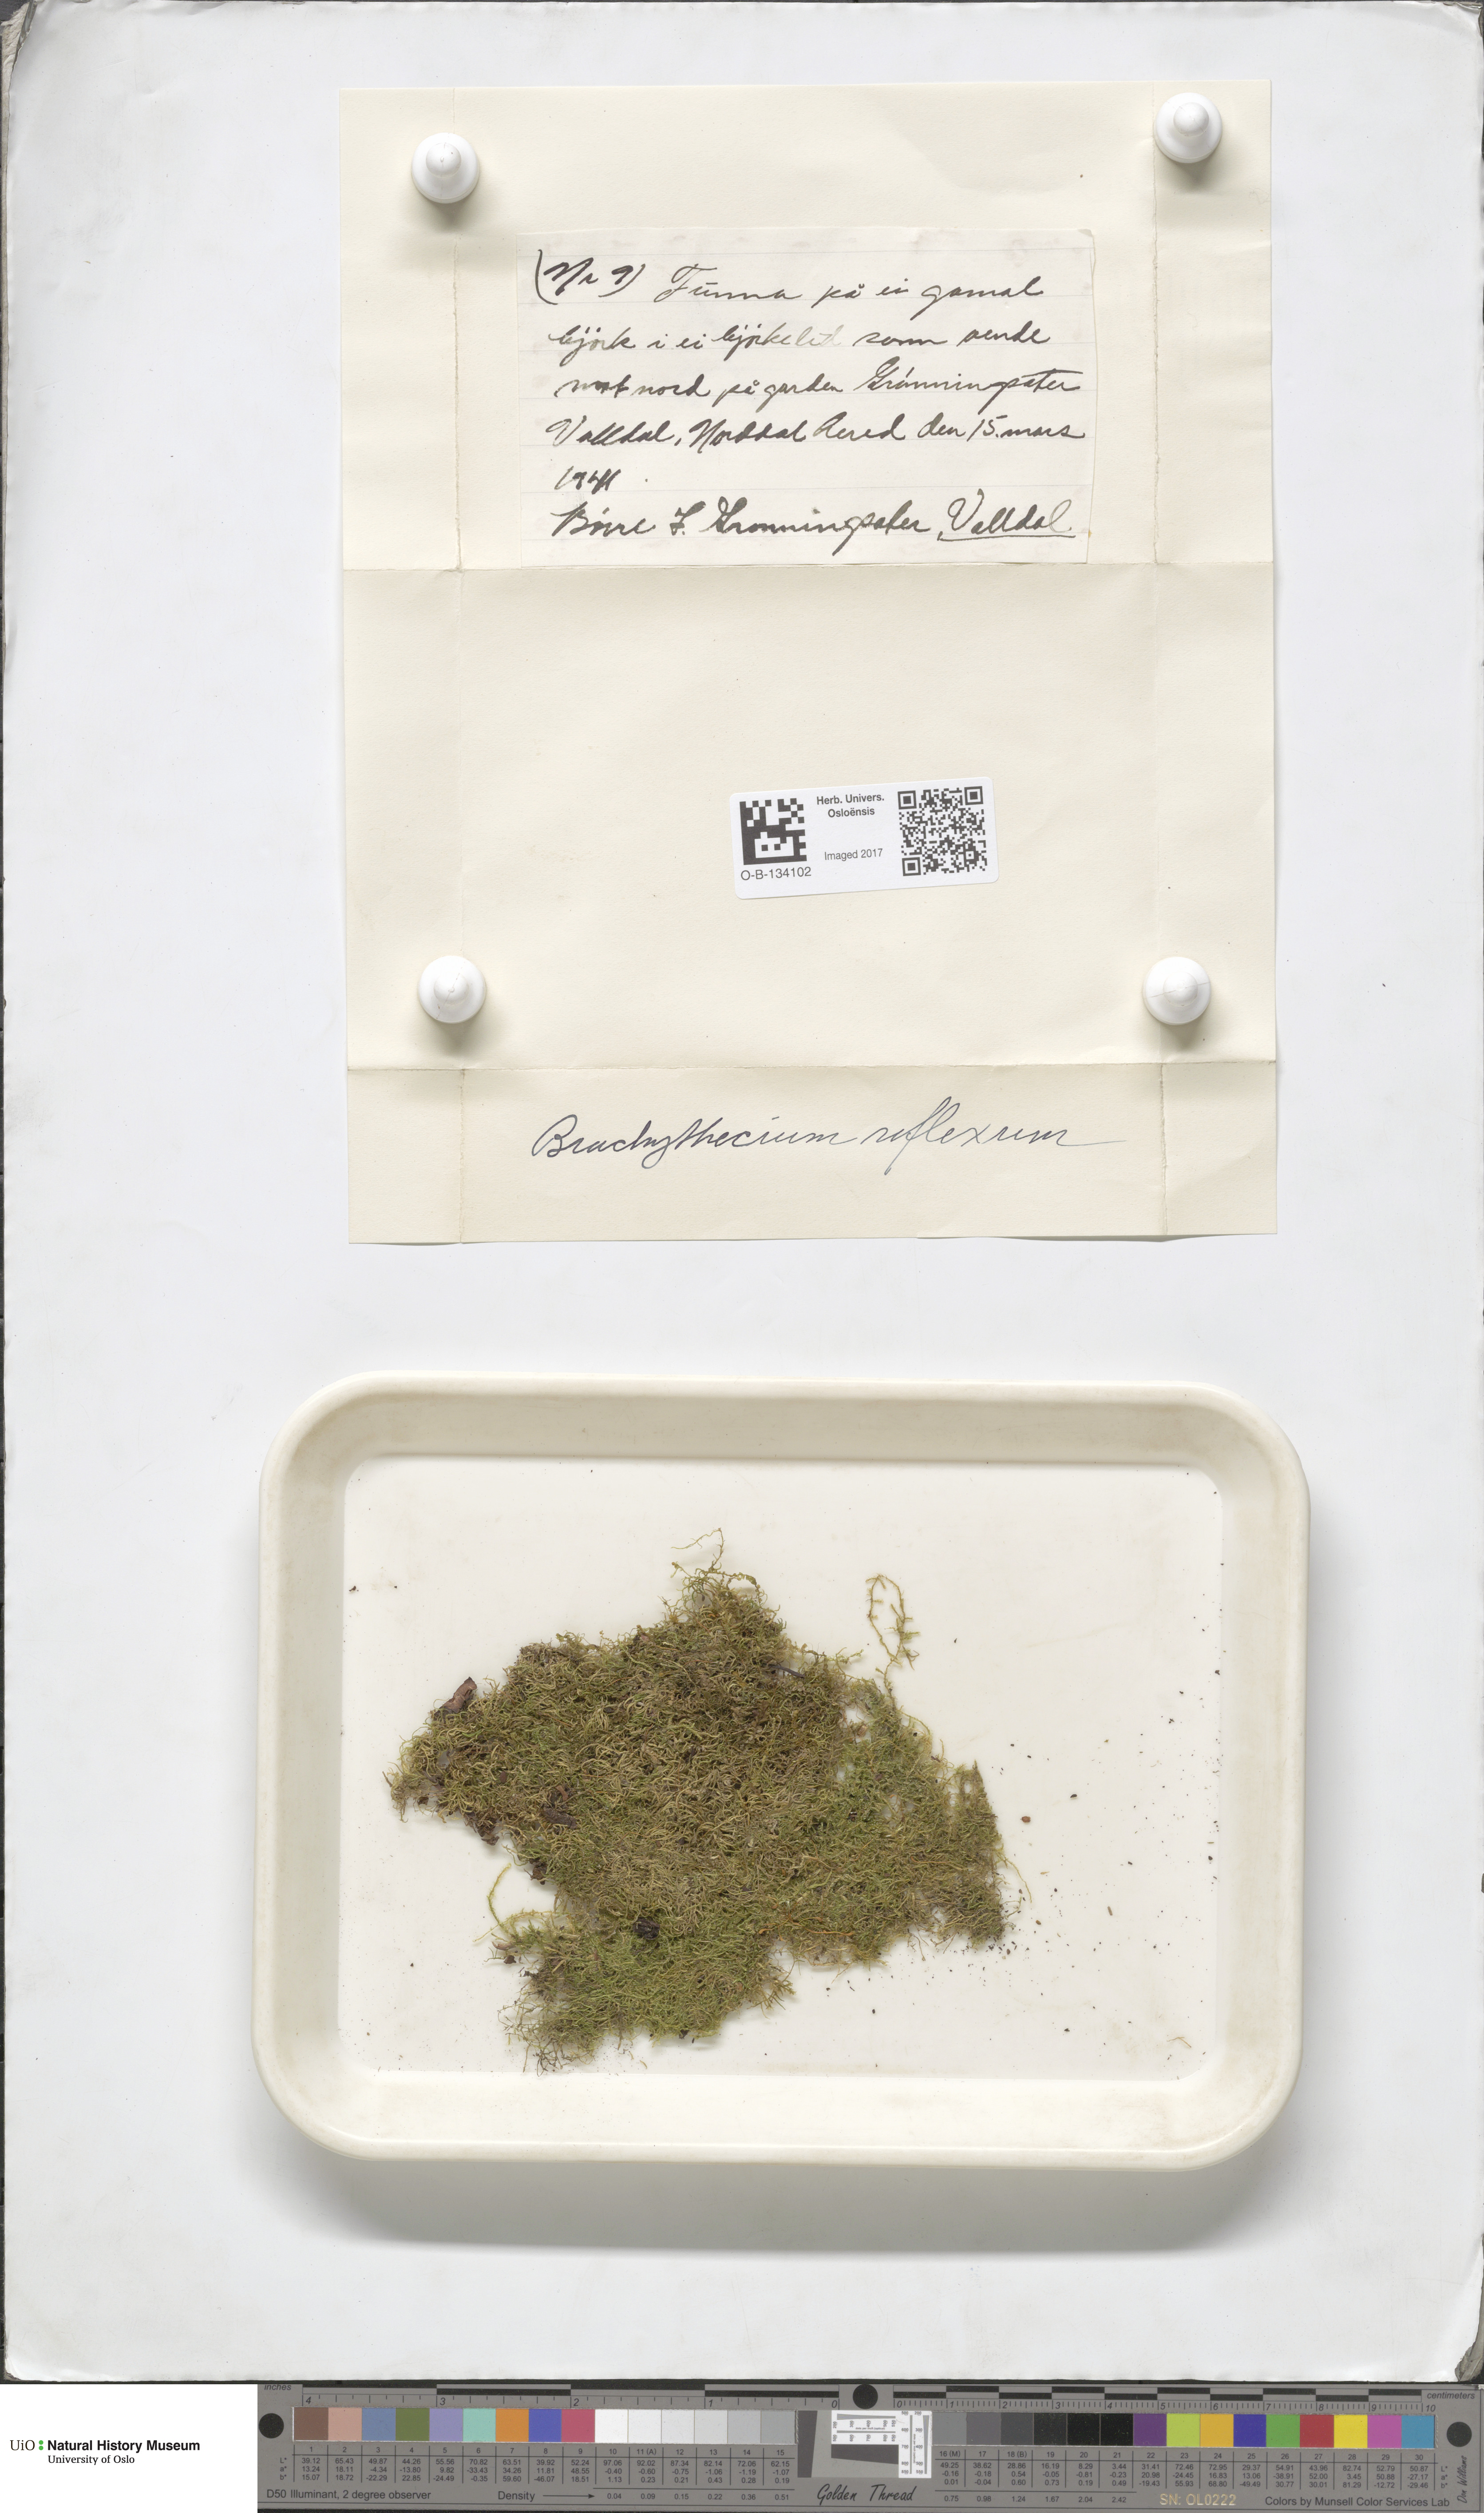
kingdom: Plantae
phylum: Bryophyta
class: Bryopsida
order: Hypnales
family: Brachytheciaceae
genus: Sciuro-hypnum
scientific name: Sciuro-hypnum reflexum
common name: Reflexed feather-moss
